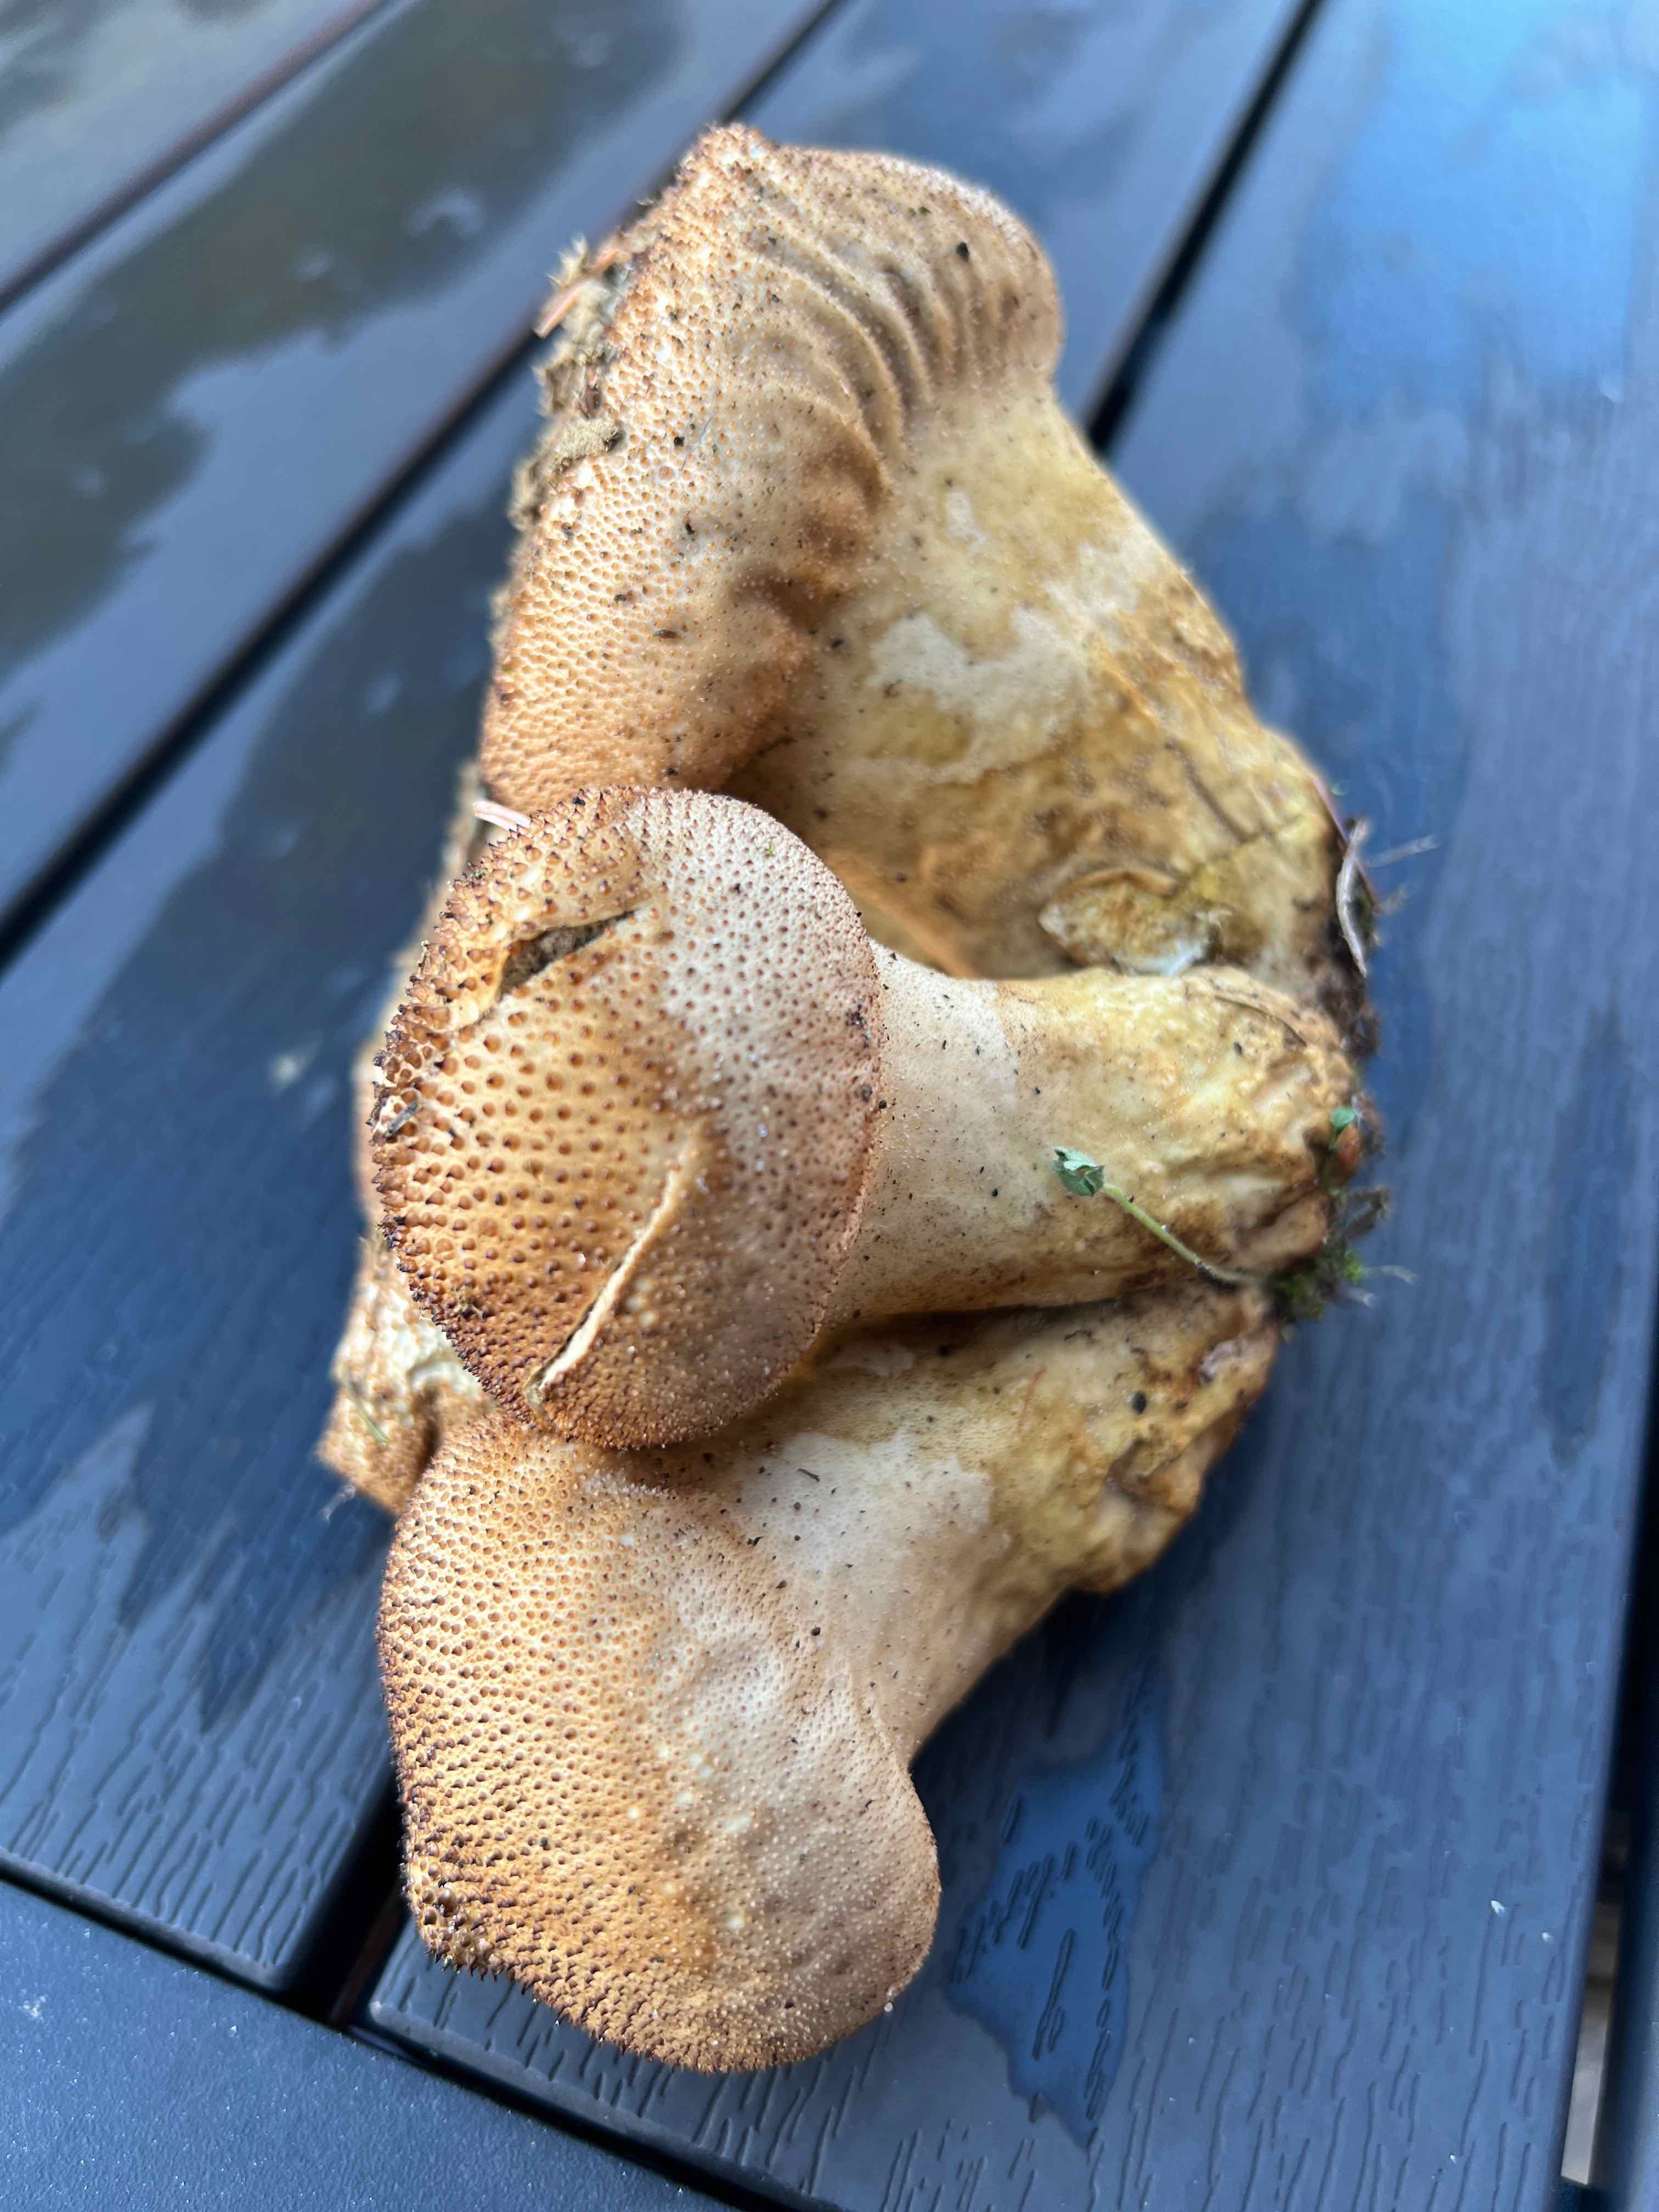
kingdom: Fungi
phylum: Basidiomycota
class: Agaricomycetes
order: Agaricales
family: Lycoperdaceae
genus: Lycoperdon
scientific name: Lycoperdon perlatum
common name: krystal-støvbold
